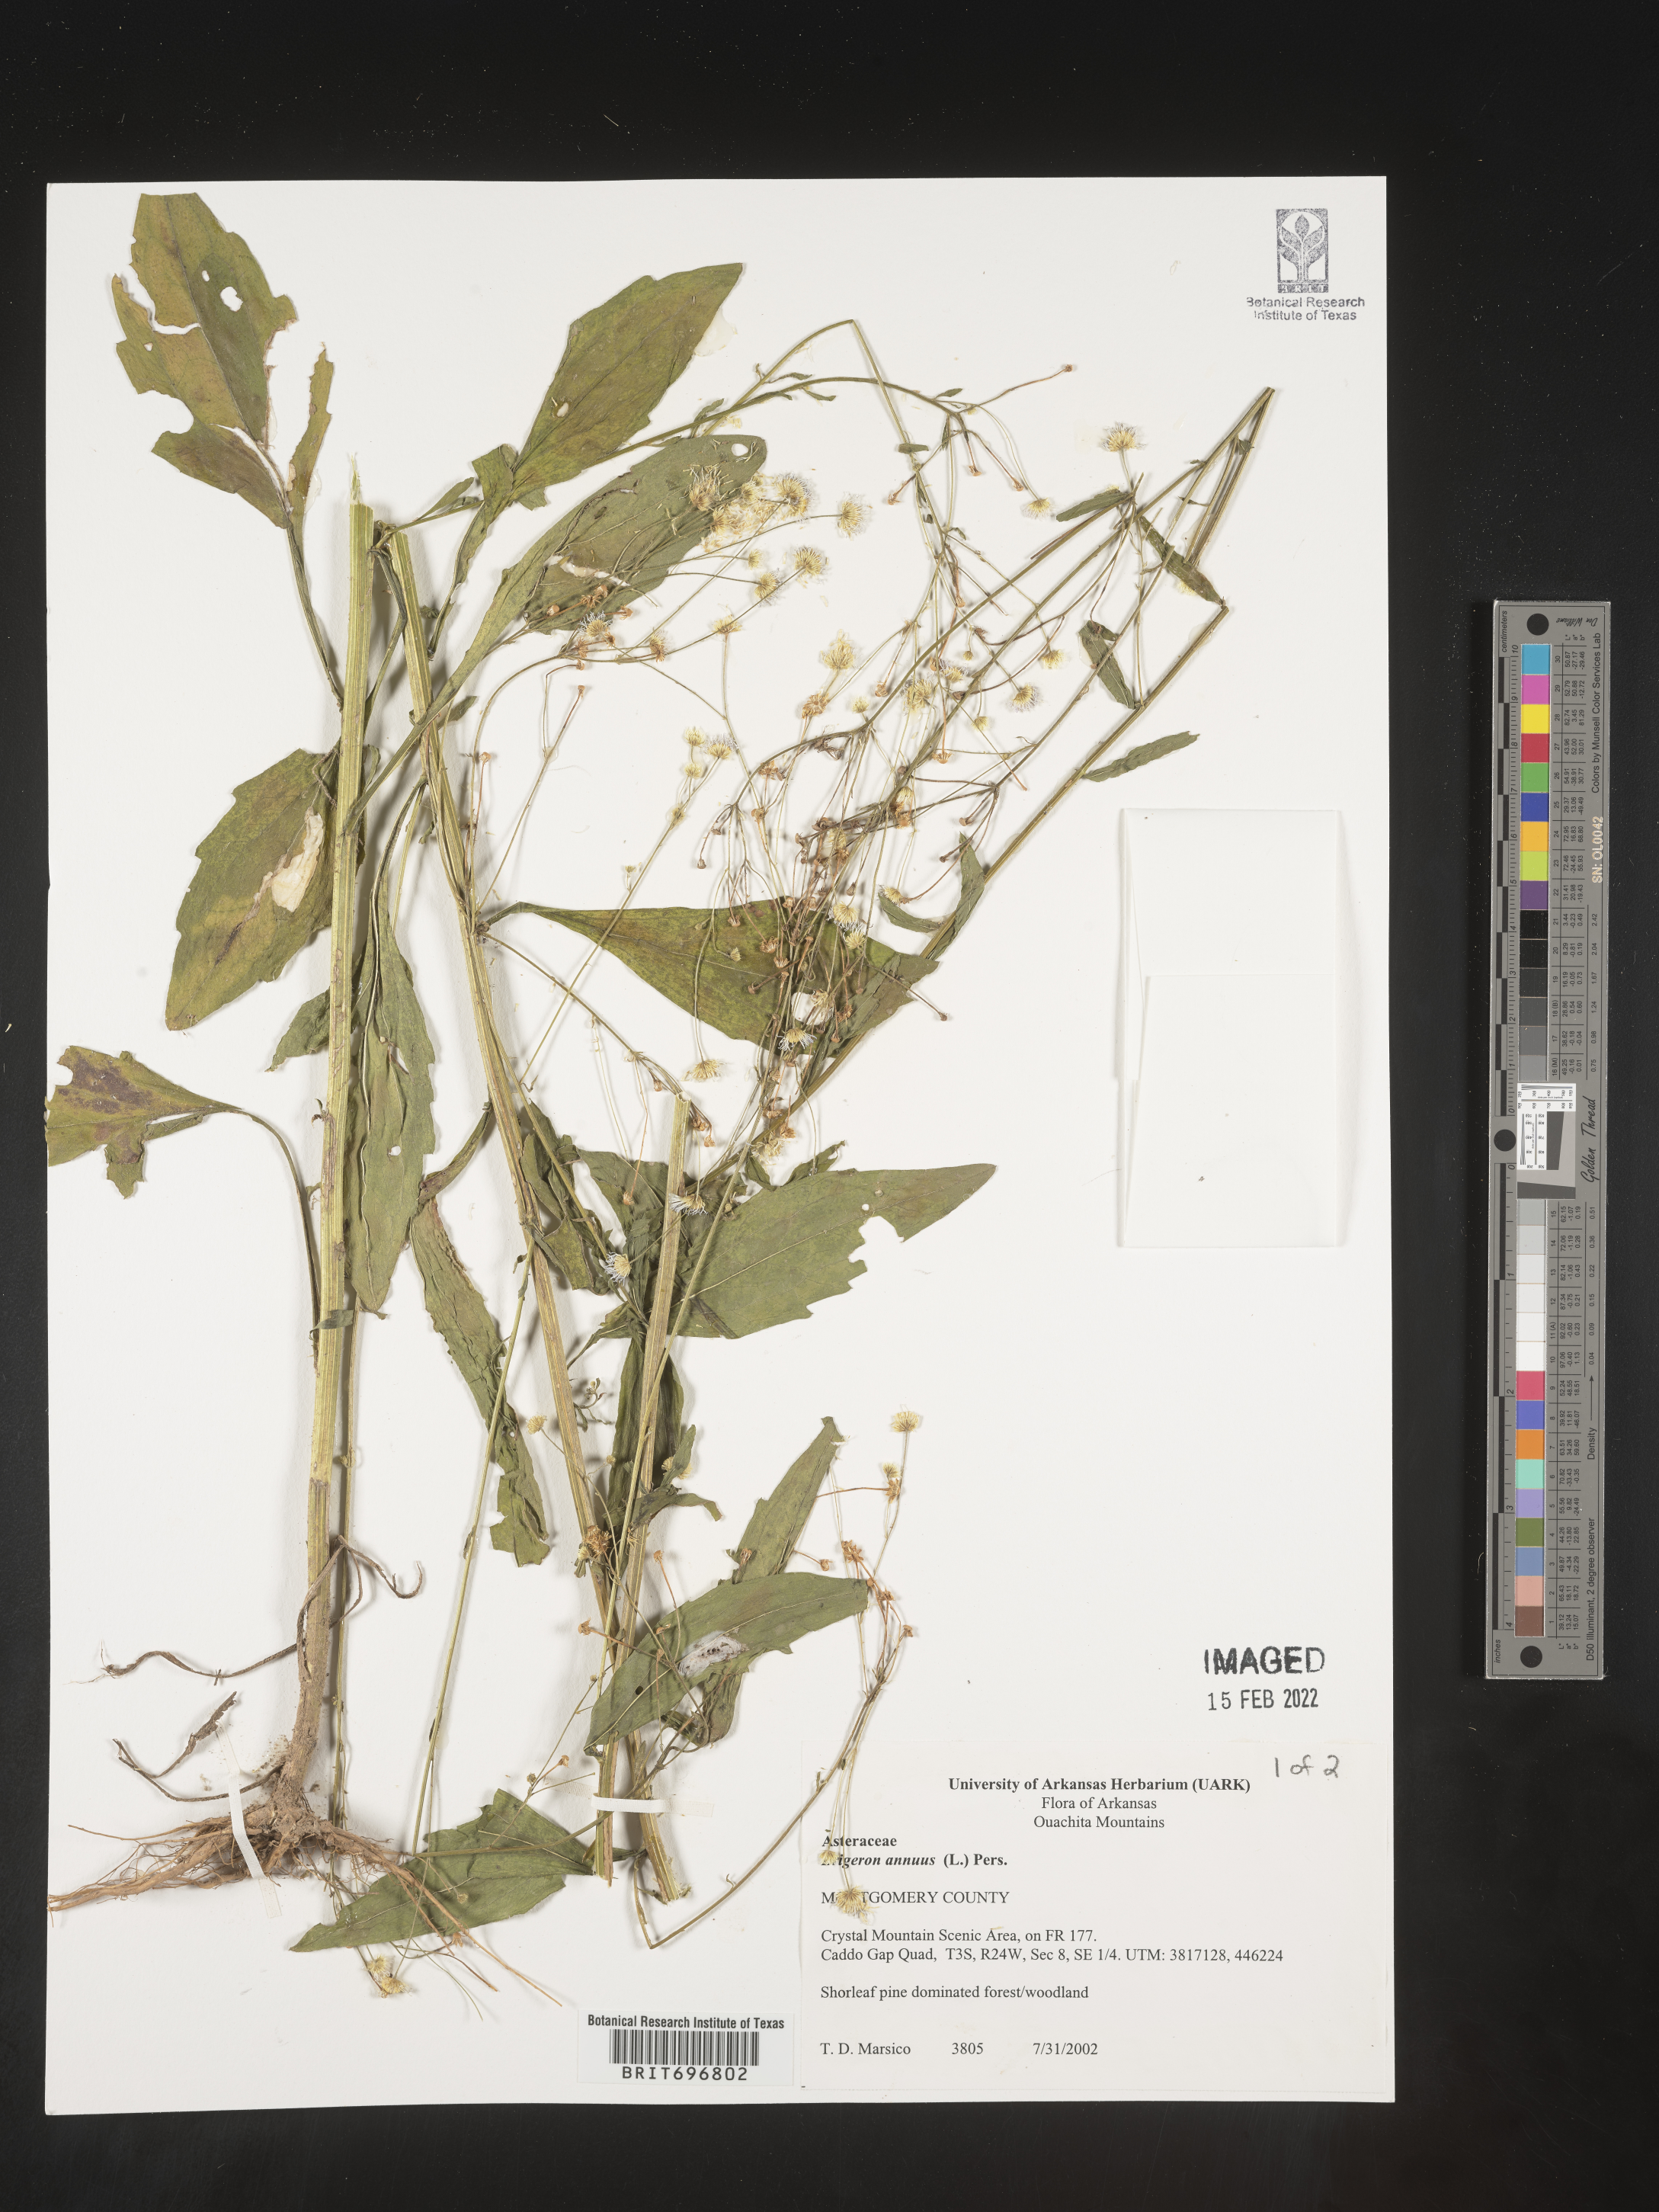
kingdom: Plantae
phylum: Tracheophyta
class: Magnoliopsida
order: Asterales
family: Asteraceae
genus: Erigeron
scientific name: Erigeron annuus
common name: Tall fleabane
